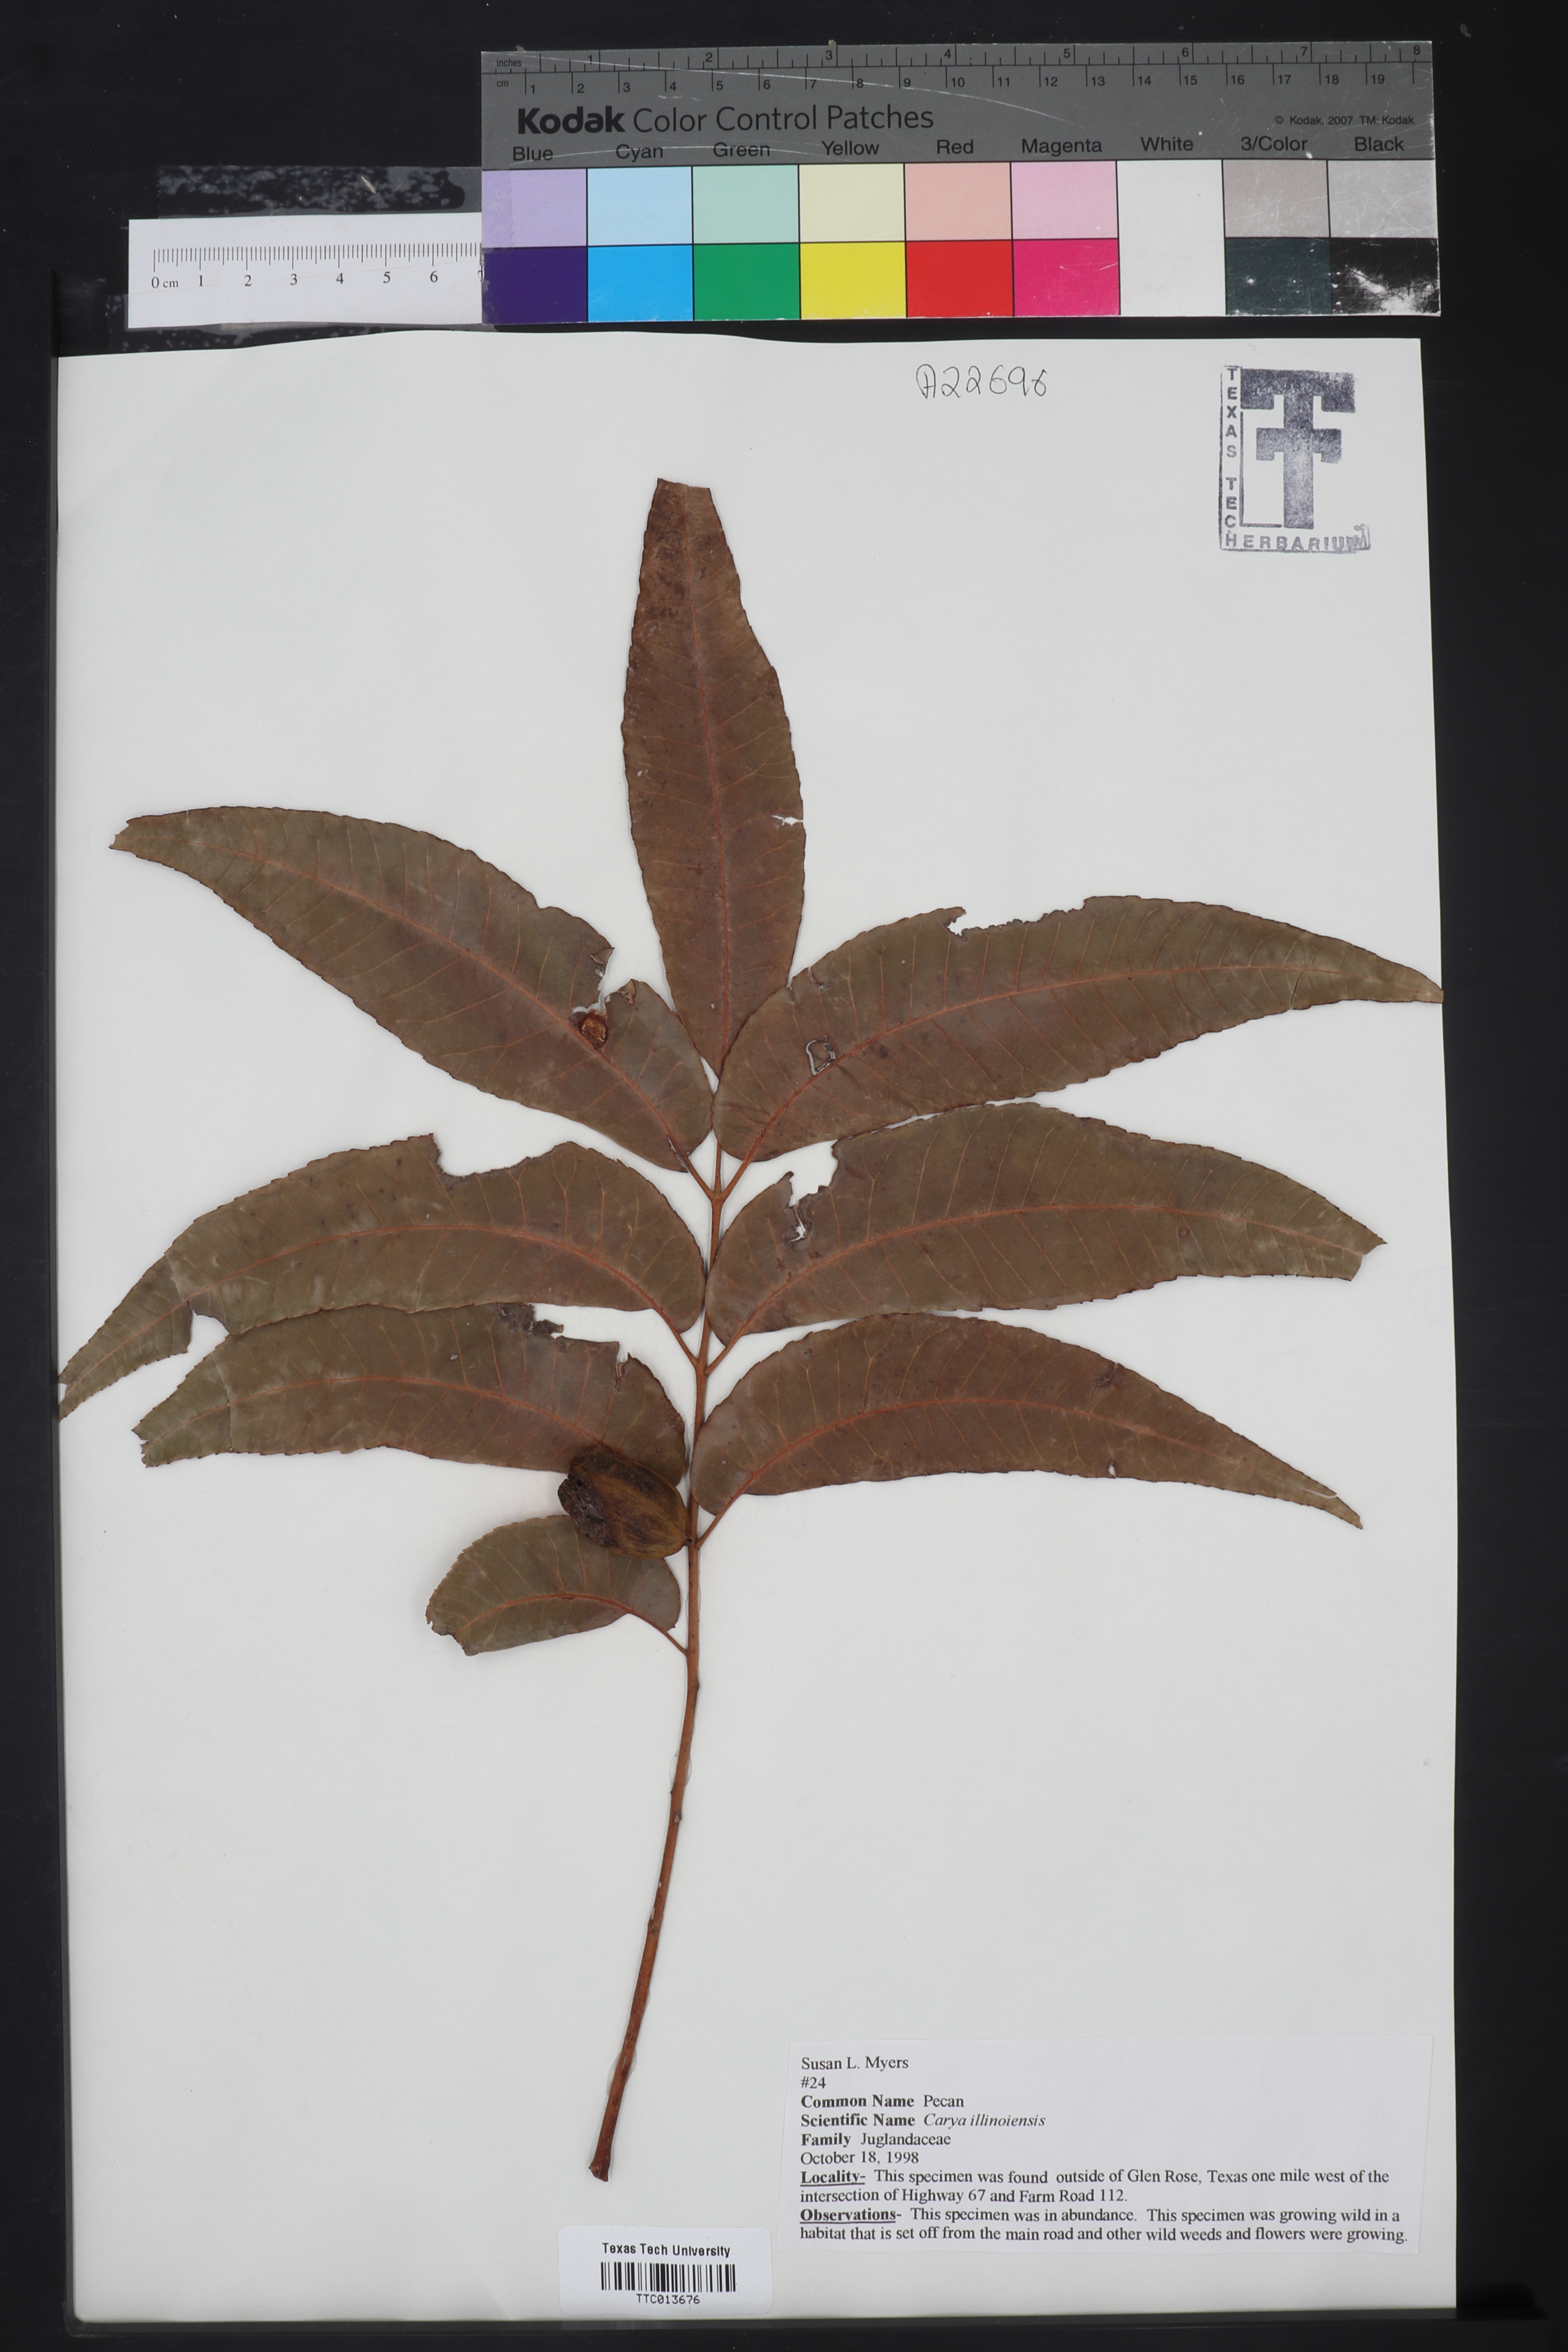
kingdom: Plantae
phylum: Tracheophyta
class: Magnoliopsida
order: Fagales
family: Juglandaceae
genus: Carya
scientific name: Carya
